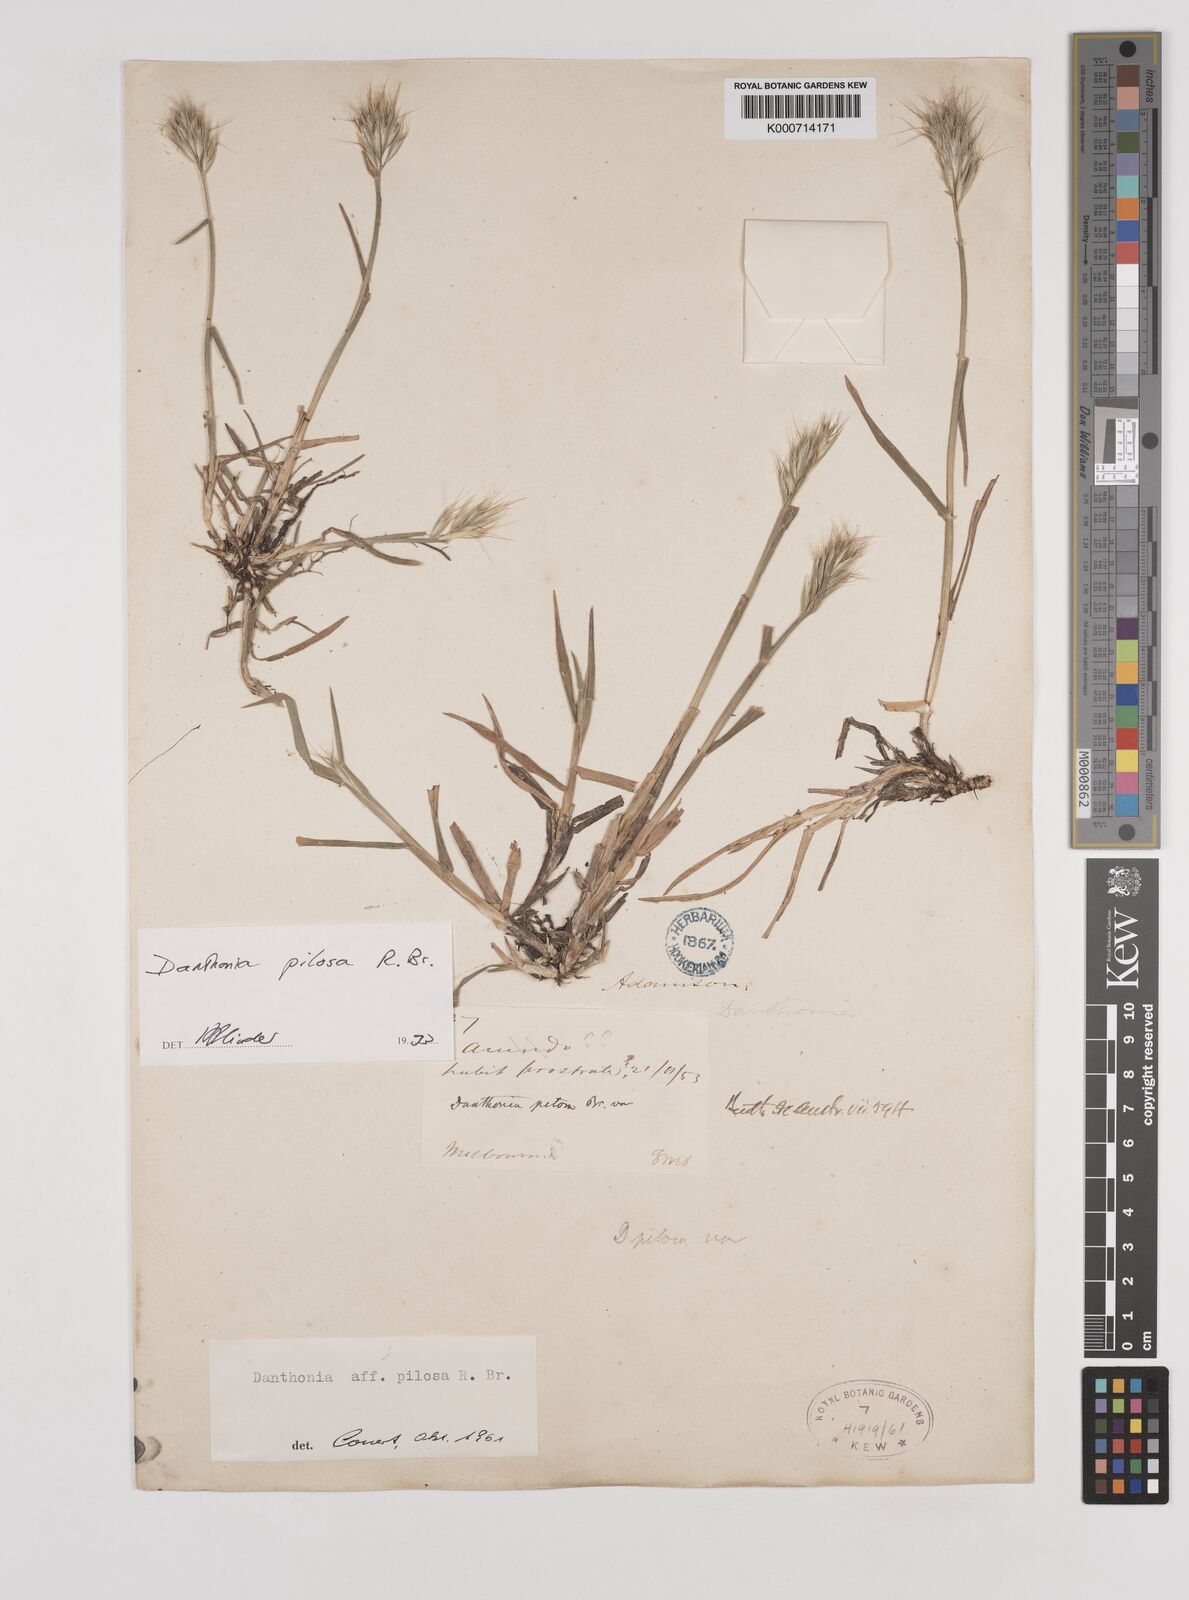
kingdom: Plantae
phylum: Tracheophyta
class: Liliopsida
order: Poales
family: Poaceae
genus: Rytidosperma
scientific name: Rytidosperma
